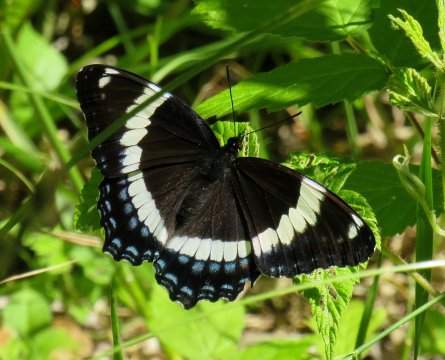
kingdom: Animalia
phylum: Arthropoda
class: Insecta
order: Lepidoptera
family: Nymphalidae
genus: Limenitis
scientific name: Limenitis arthemis
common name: Red-spotted Admiral
